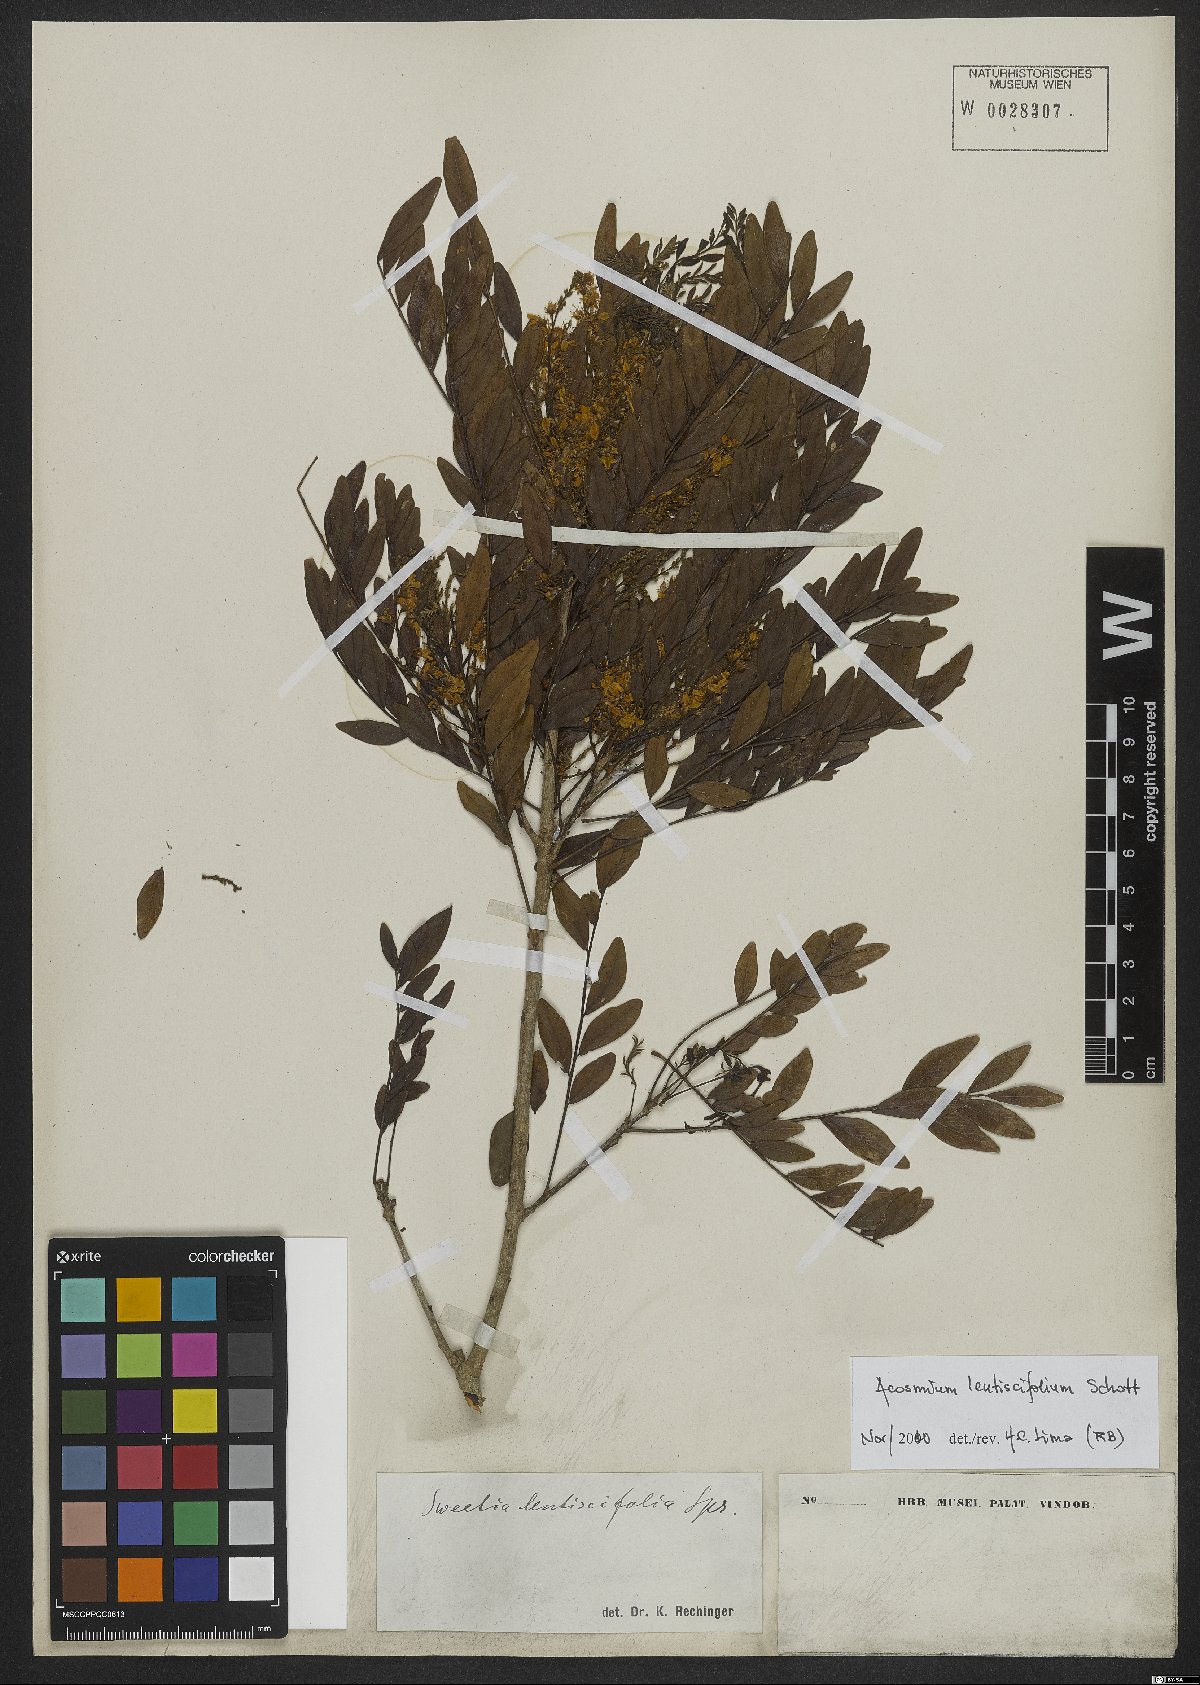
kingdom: Plantae
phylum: Tracheophyta
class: Magnoliopsida
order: Fabales
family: Fabaceae
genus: Acosmium
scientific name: Acosmium lentiscifolium
